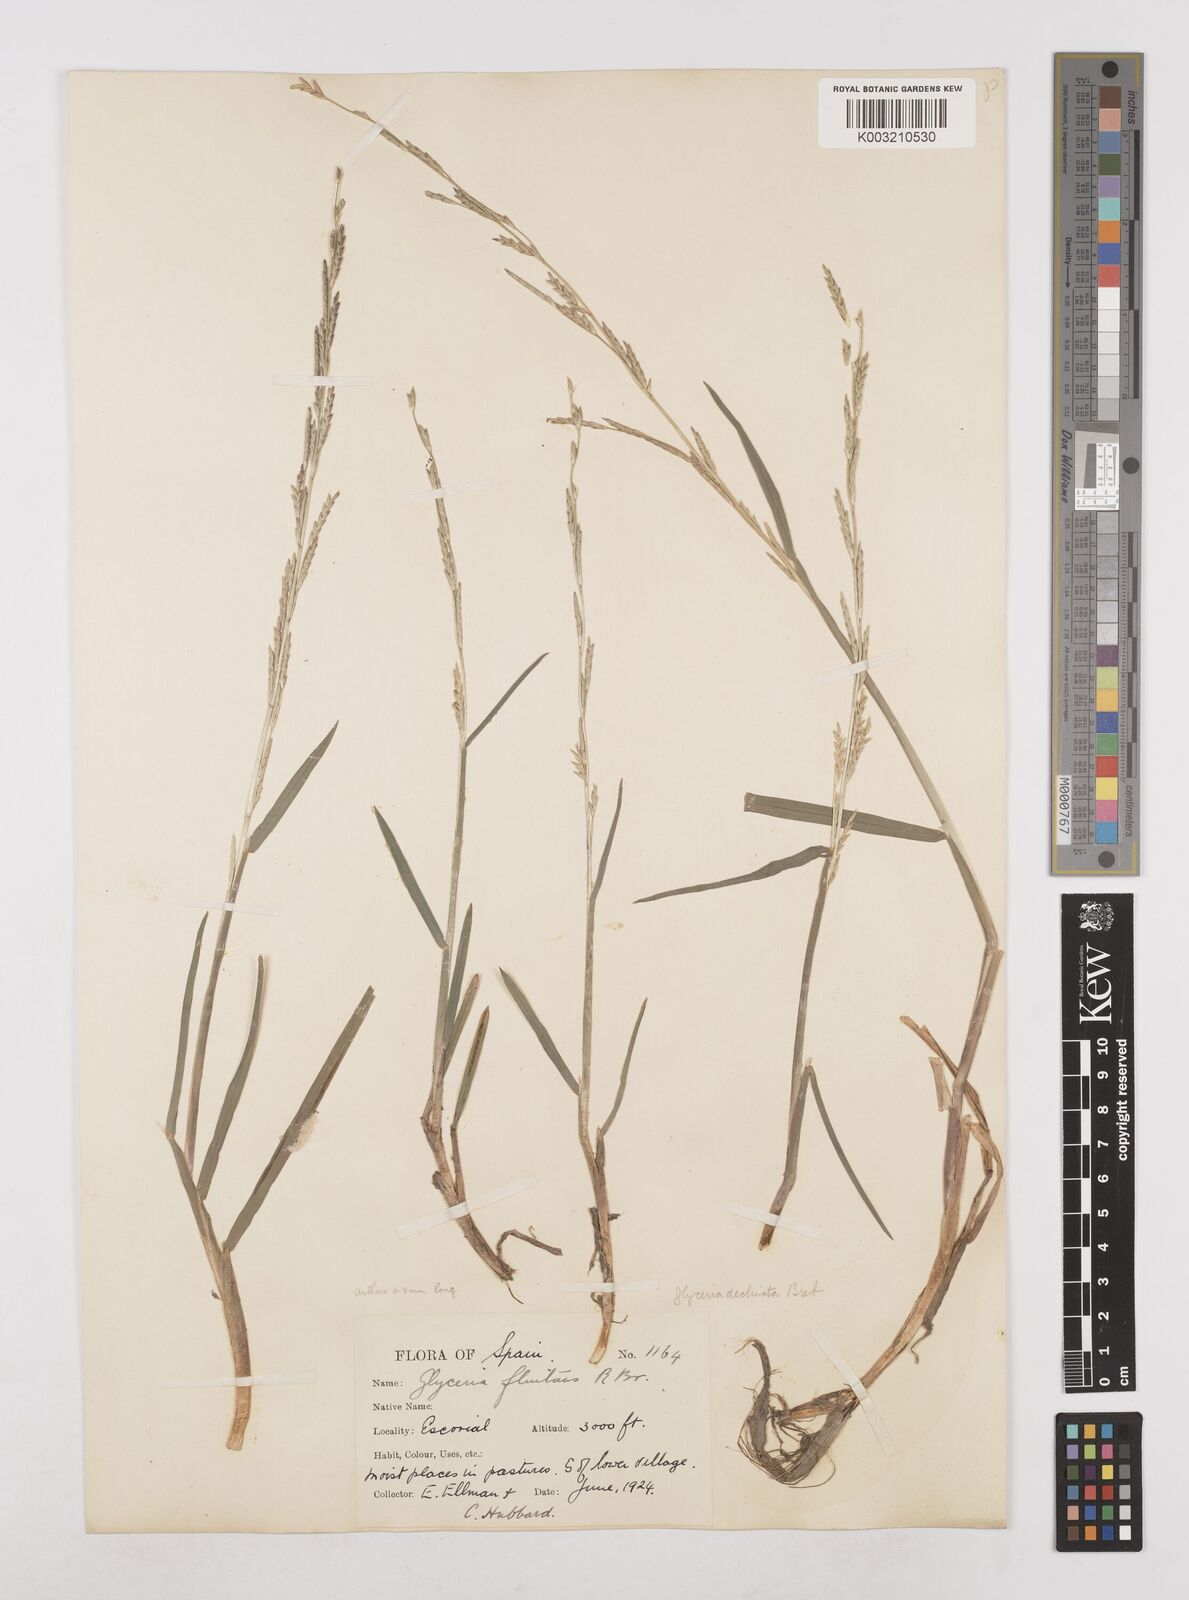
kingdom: Plantae
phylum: Tracheophyta
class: Liliopsida
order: Poales
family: Poaceae
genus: Glyceria
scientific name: Glyceria declinata
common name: Small sweet-grass
